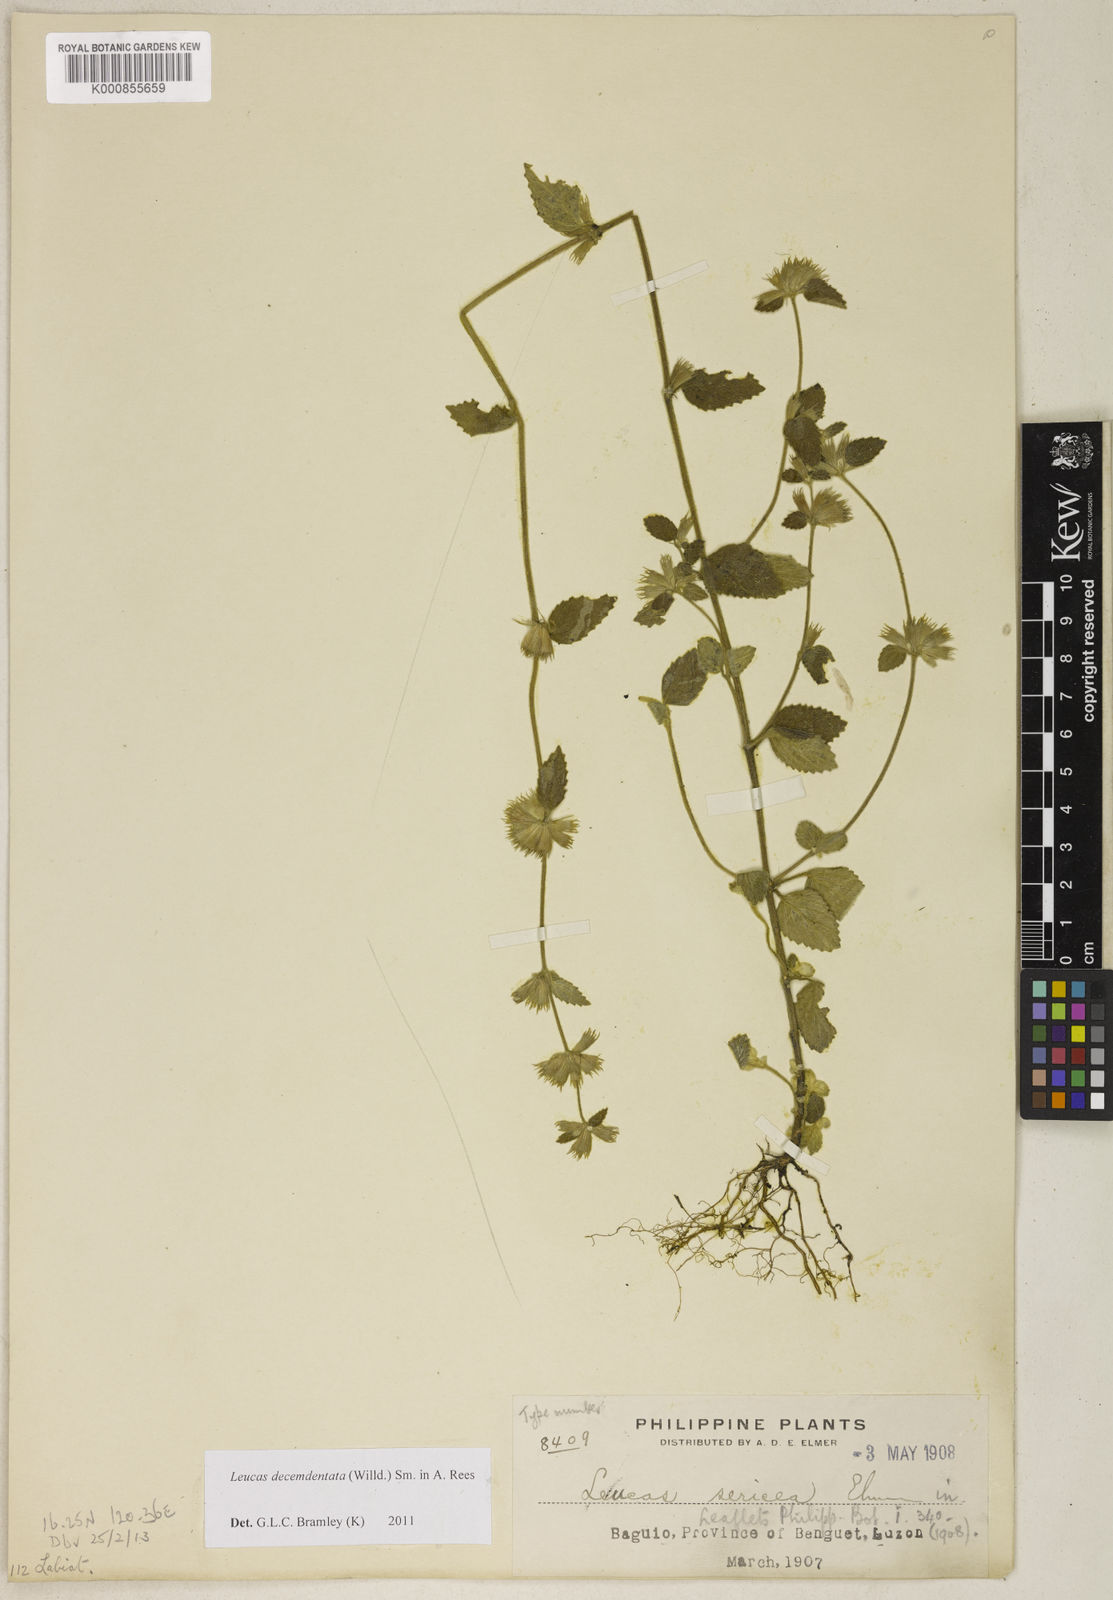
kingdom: Plantae
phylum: Tracheophyta
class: Magnoliopsida
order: Lamiales
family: Lamiaceae
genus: Leucas
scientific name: Leucas decemdentata
